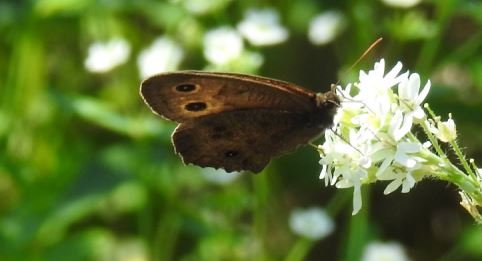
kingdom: Animalia
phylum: Arthropoda
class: Insecta
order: Lepidoptera
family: Nymphalidae
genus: Cercyonis
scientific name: Cercyonis pegala
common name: Common Wood-Nymph
